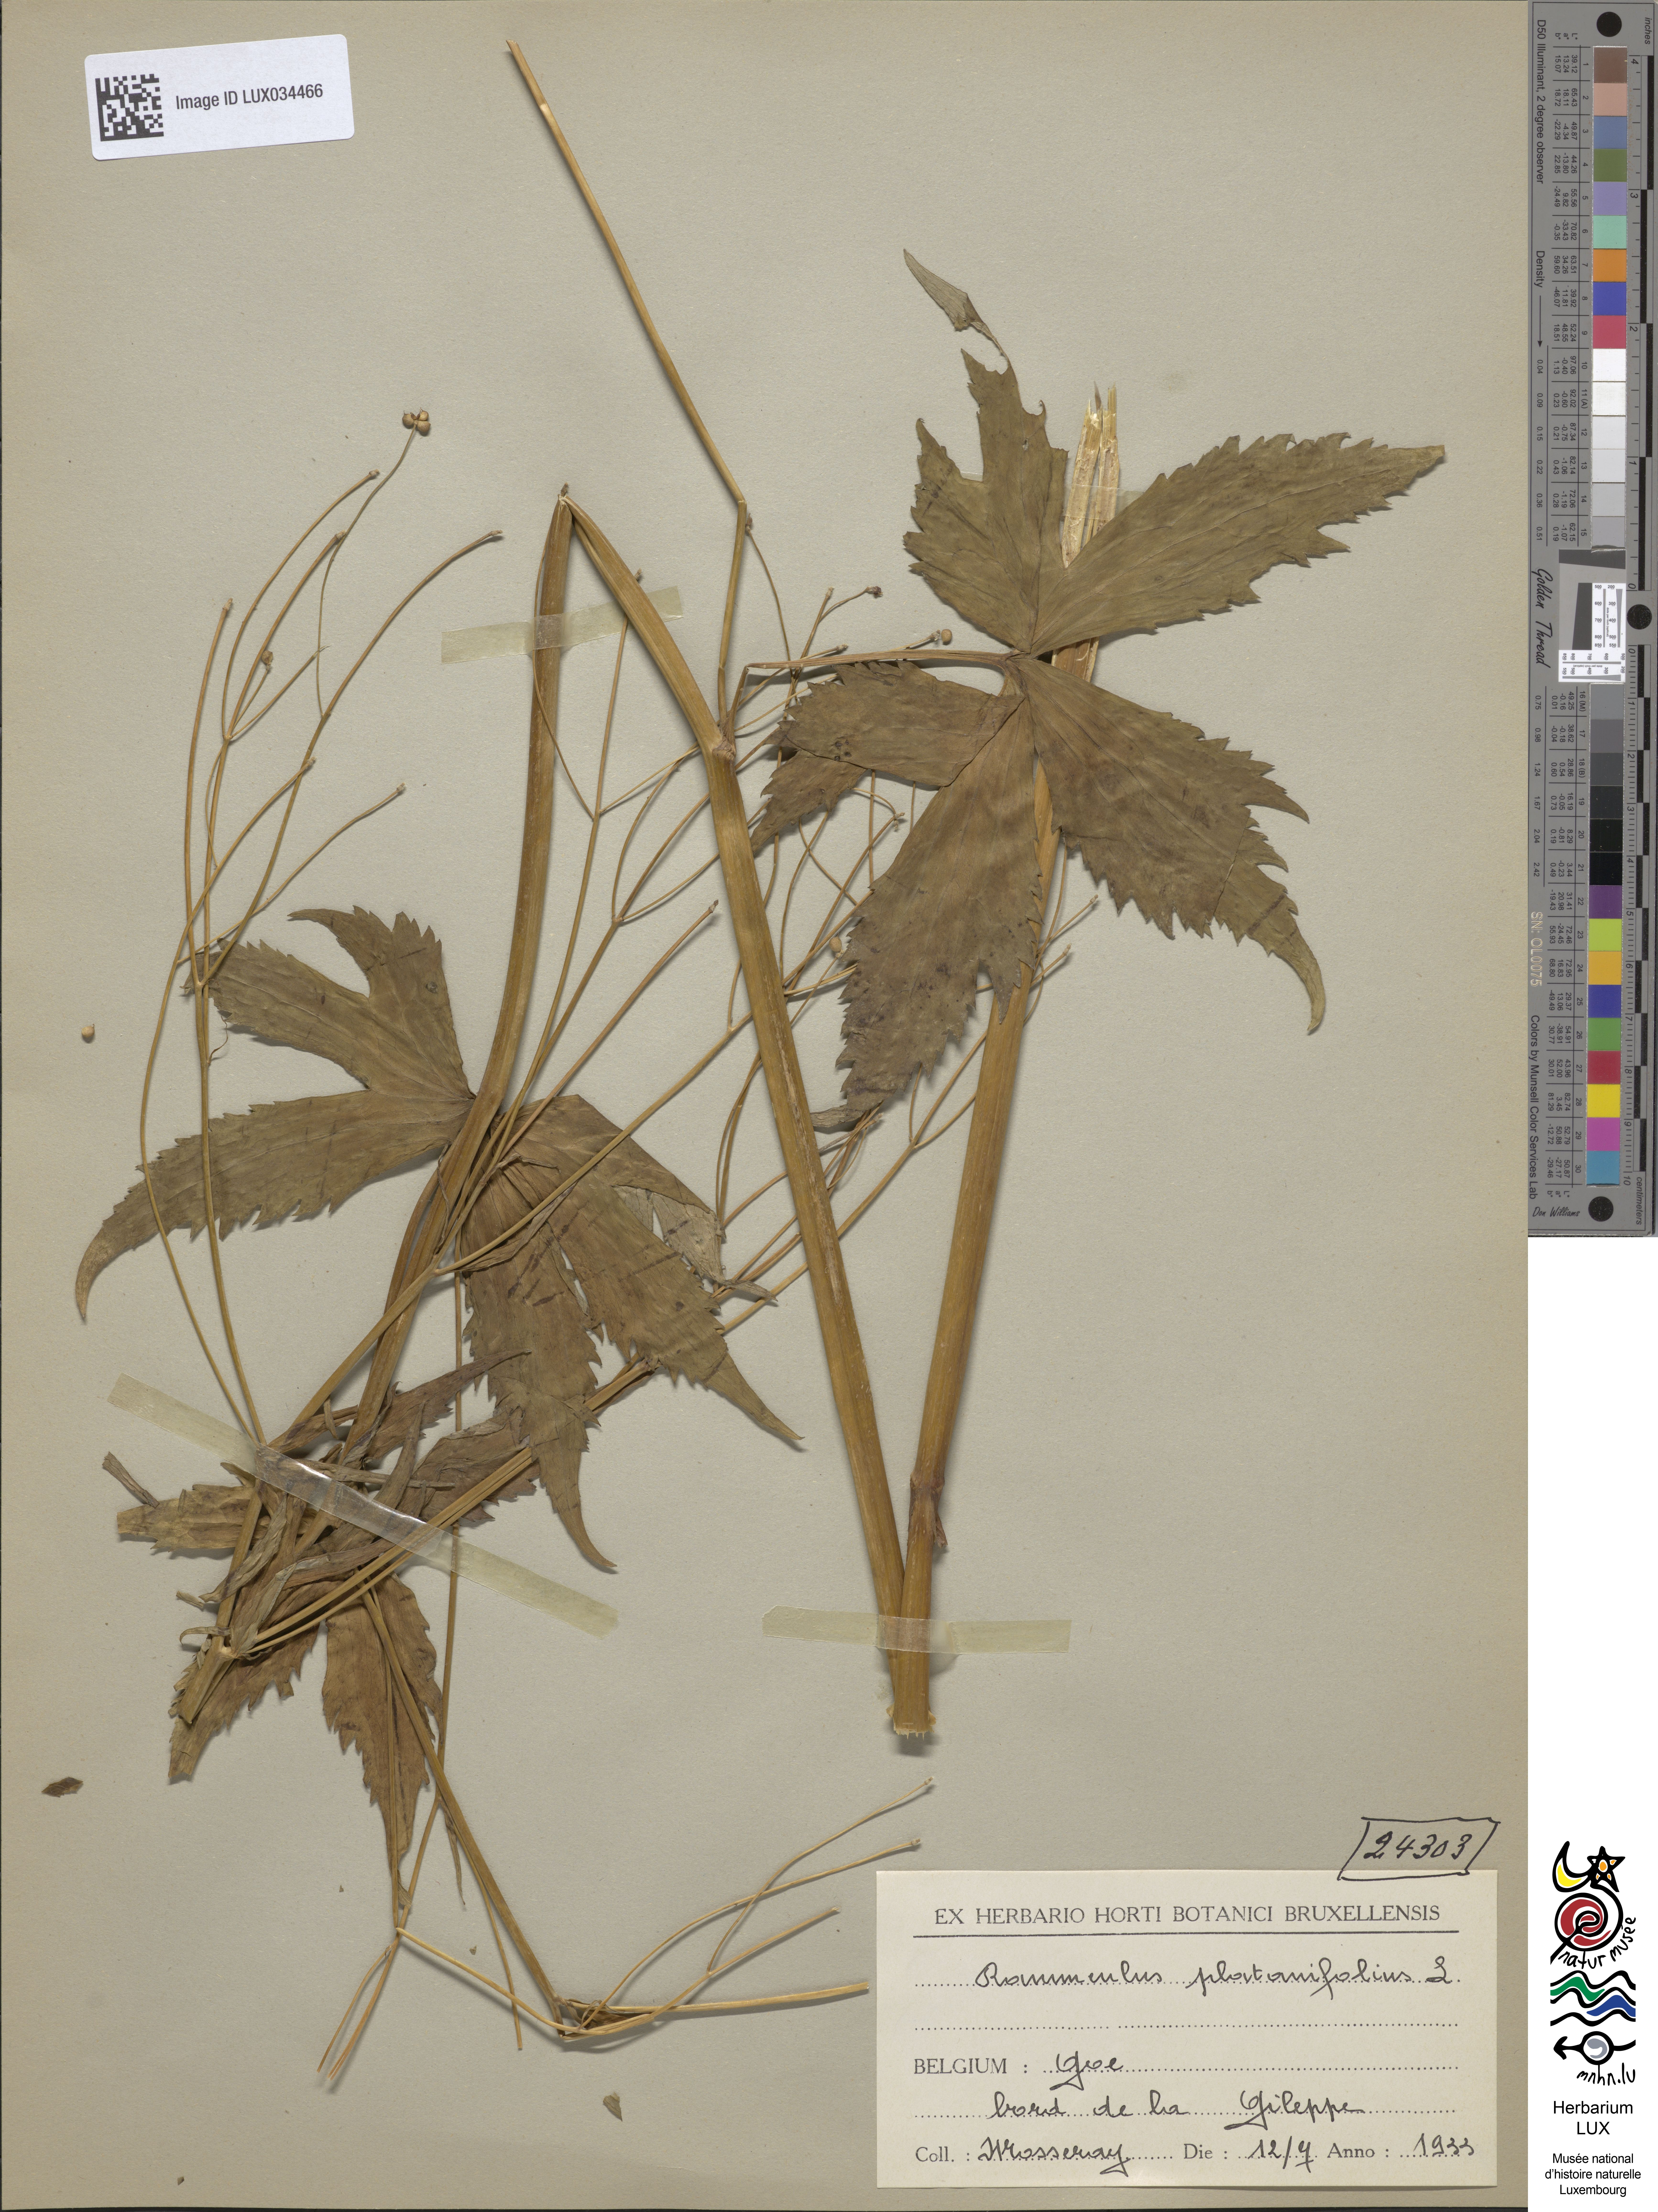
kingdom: Plantae
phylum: Tracheophyta
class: Magnoliopsida
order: Ranunculales
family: Ranunculaceae
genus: Ranunculus
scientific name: Ranunculus platanifolius
